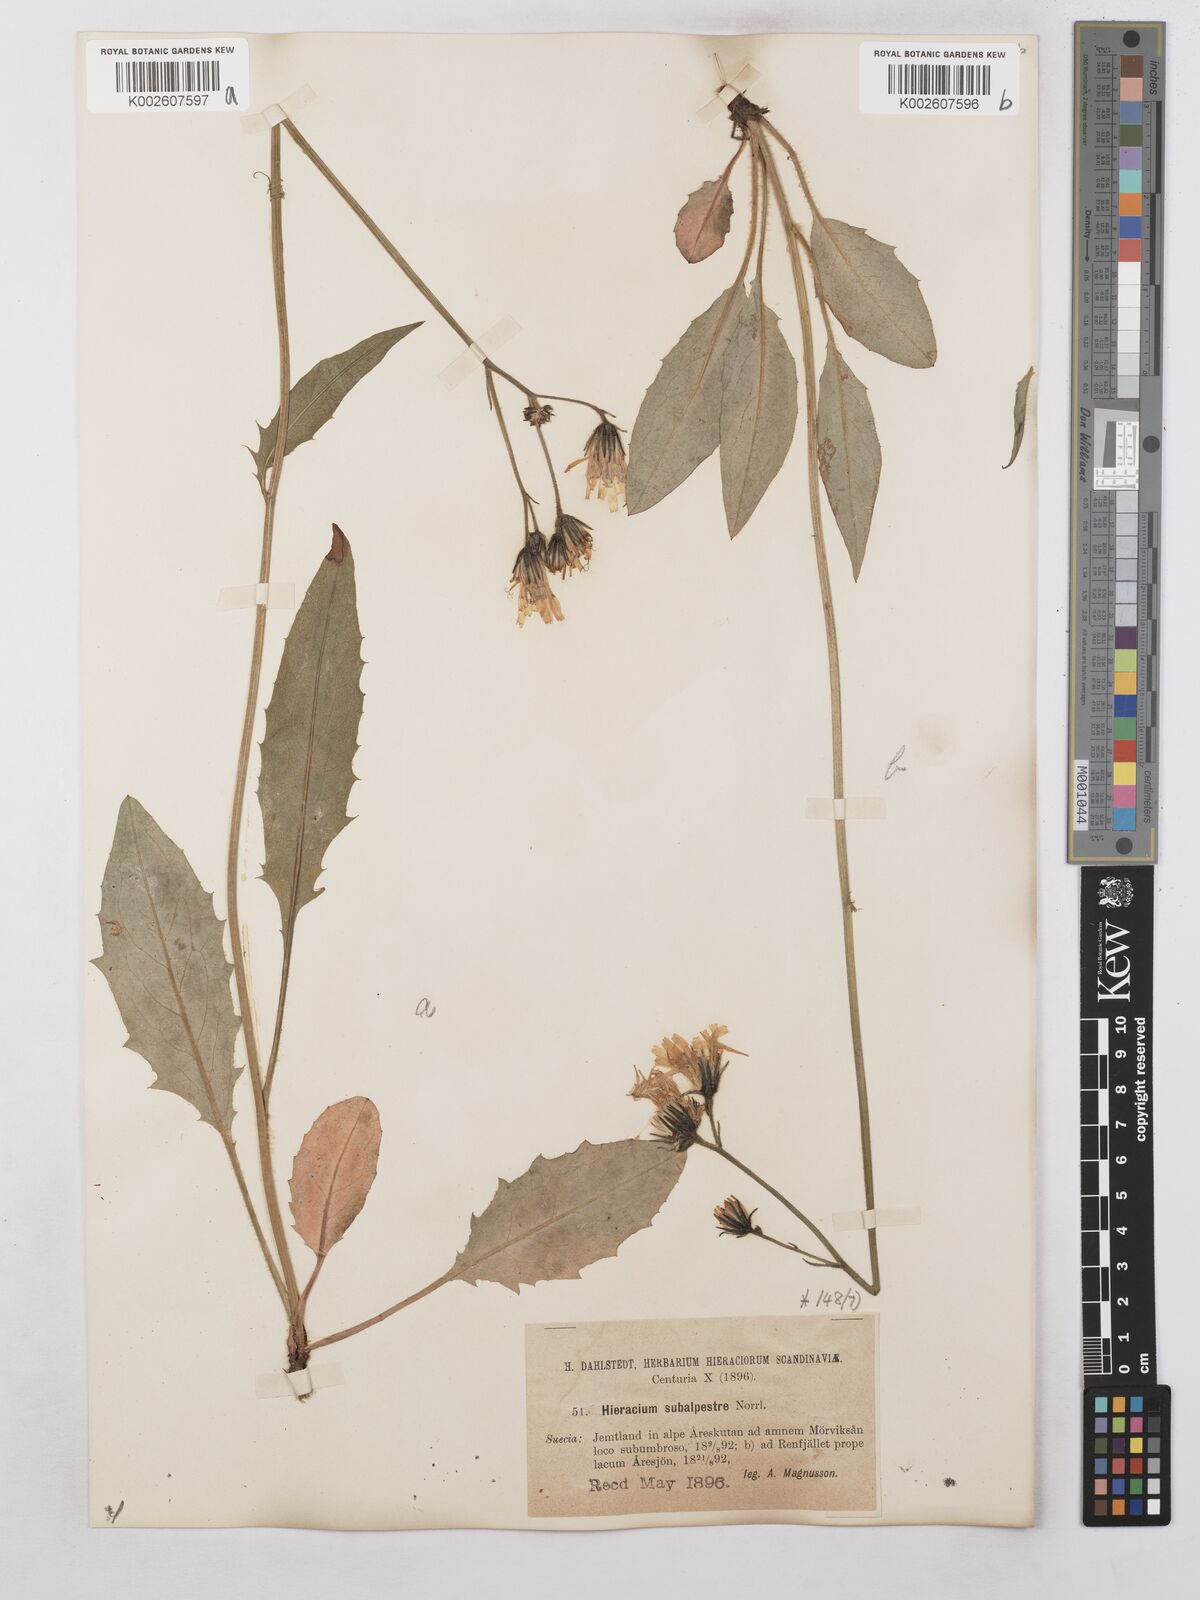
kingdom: Plantae
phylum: Tracheophyta
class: Magnoliopsida
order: Asterales
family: Asteraceae
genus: Hieracium
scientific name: Hieracium subramosum
